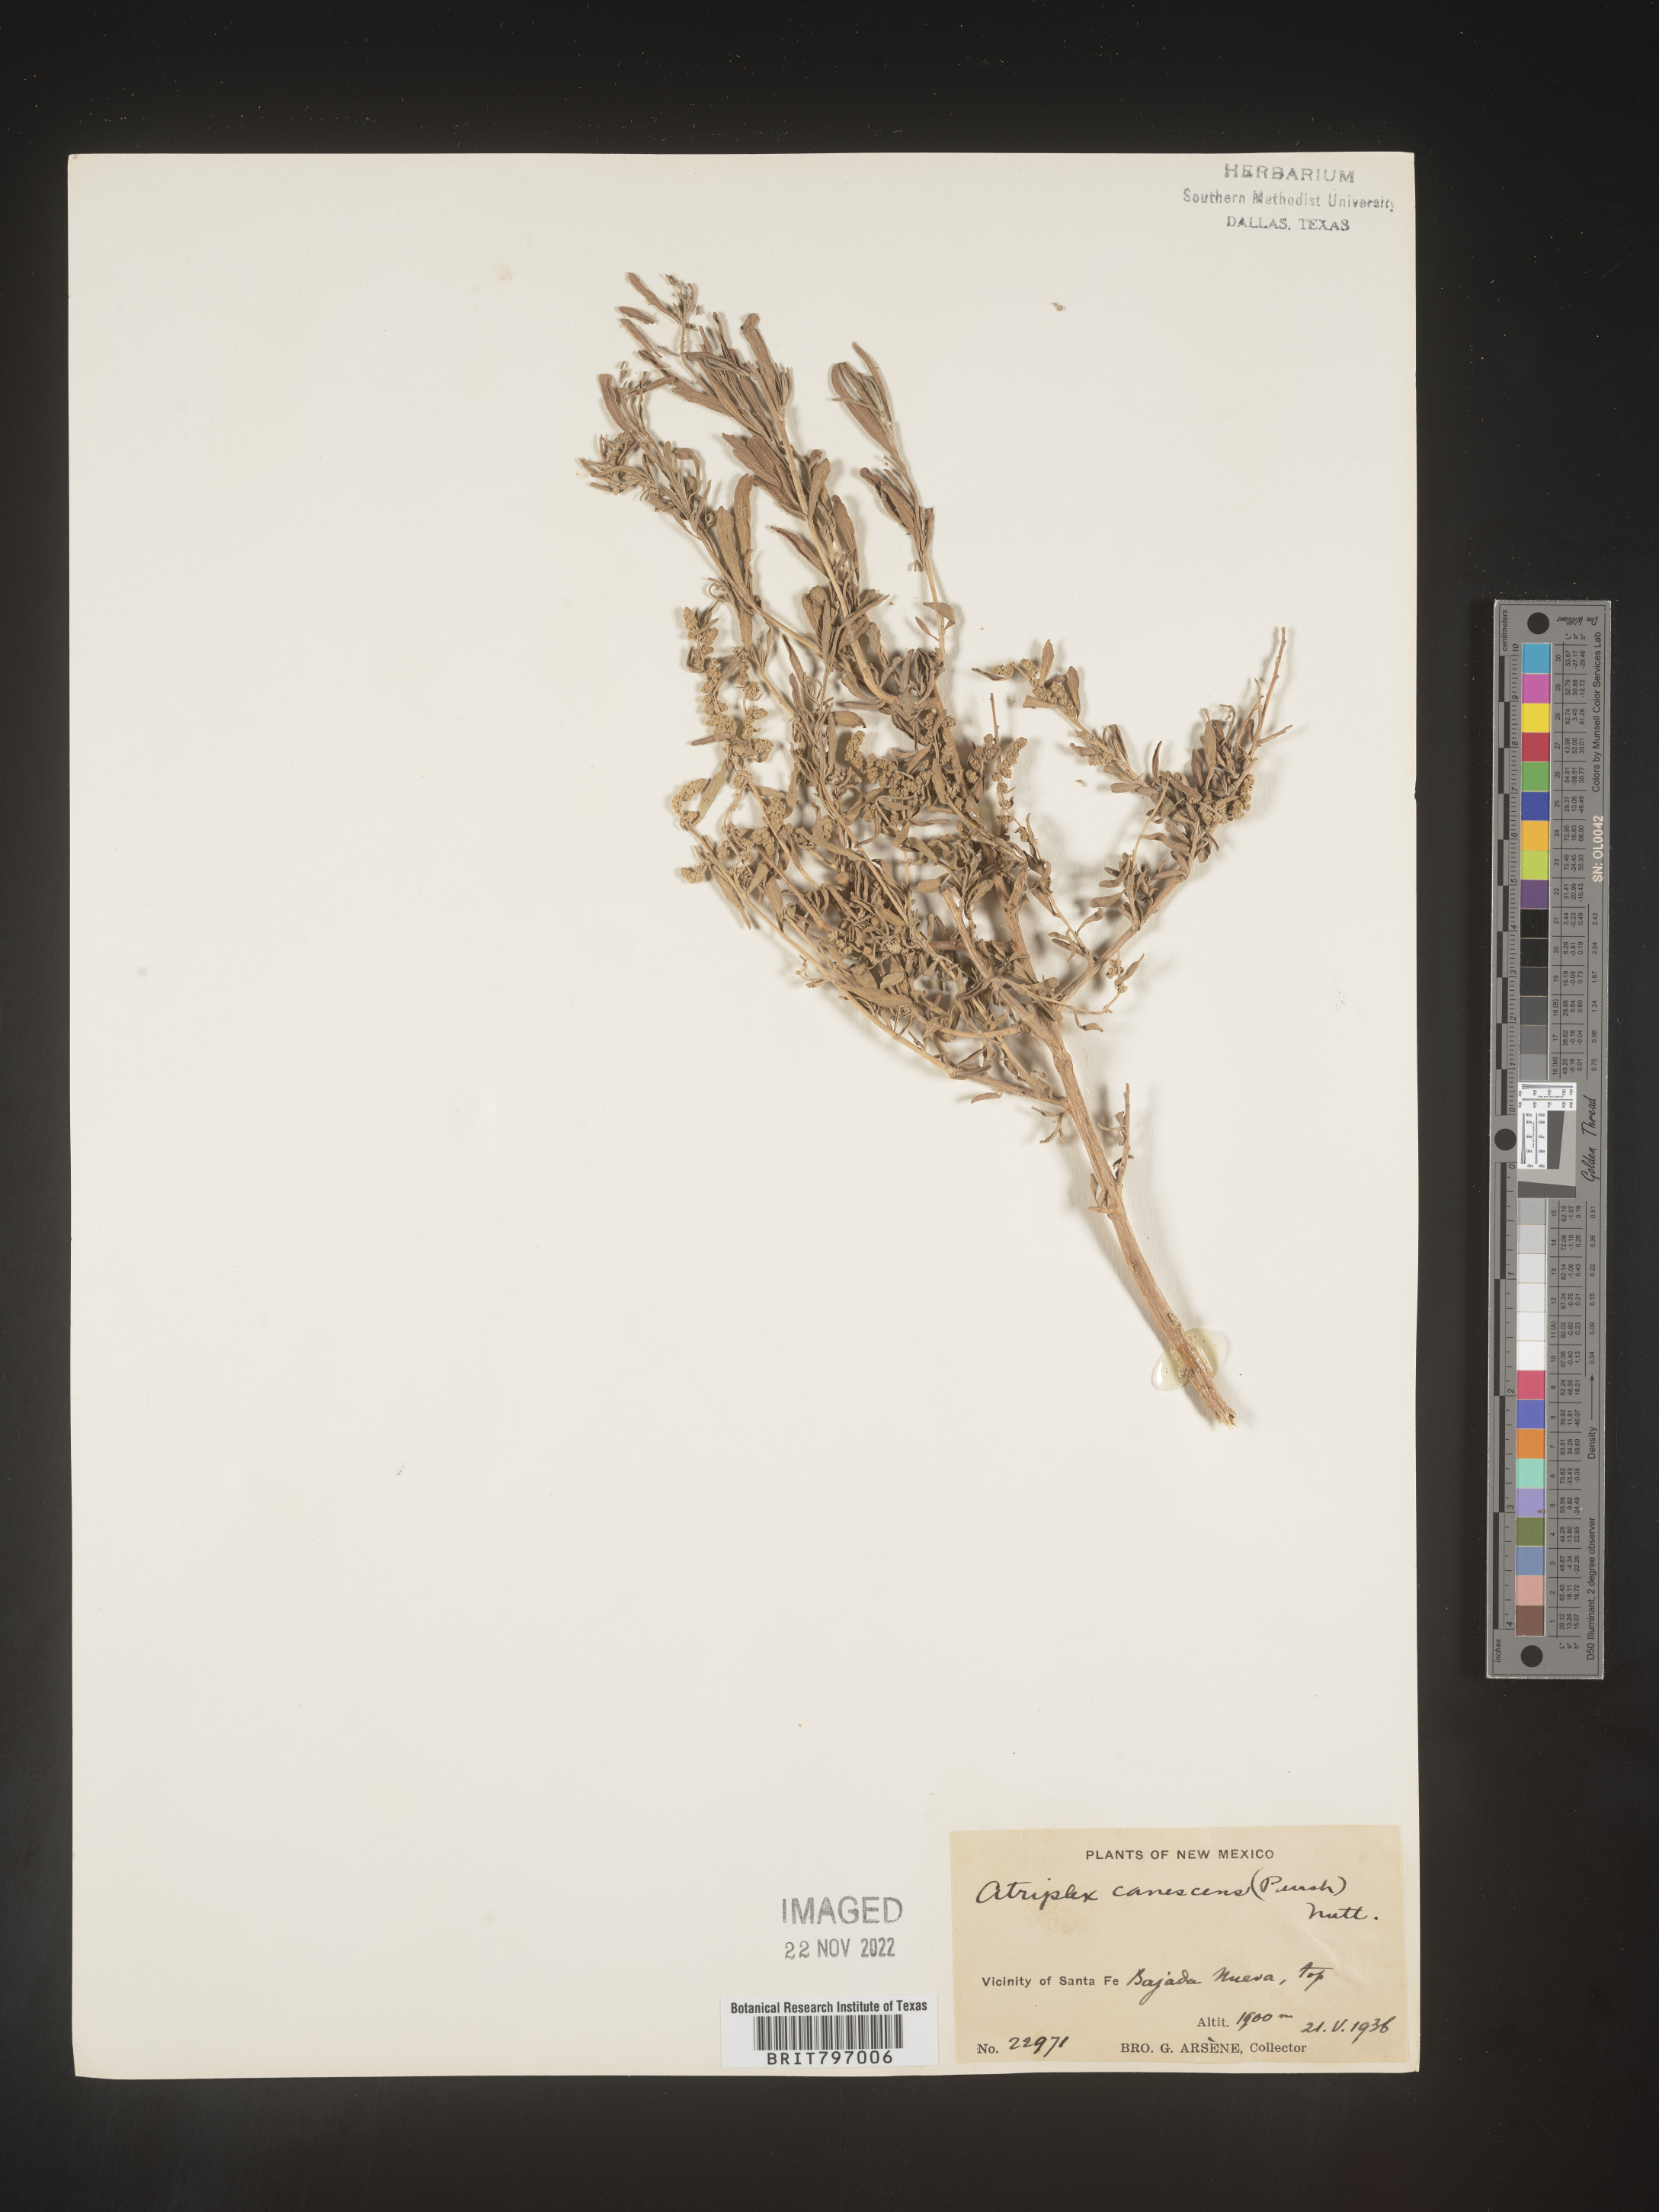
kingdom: Plantae
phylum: Tracheophyta
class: Magnoliopsida
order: Caryophyllales
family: Amaranthaceae
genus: Atriplex
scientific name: Atriplex canescens
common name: Four-wing saltbush
